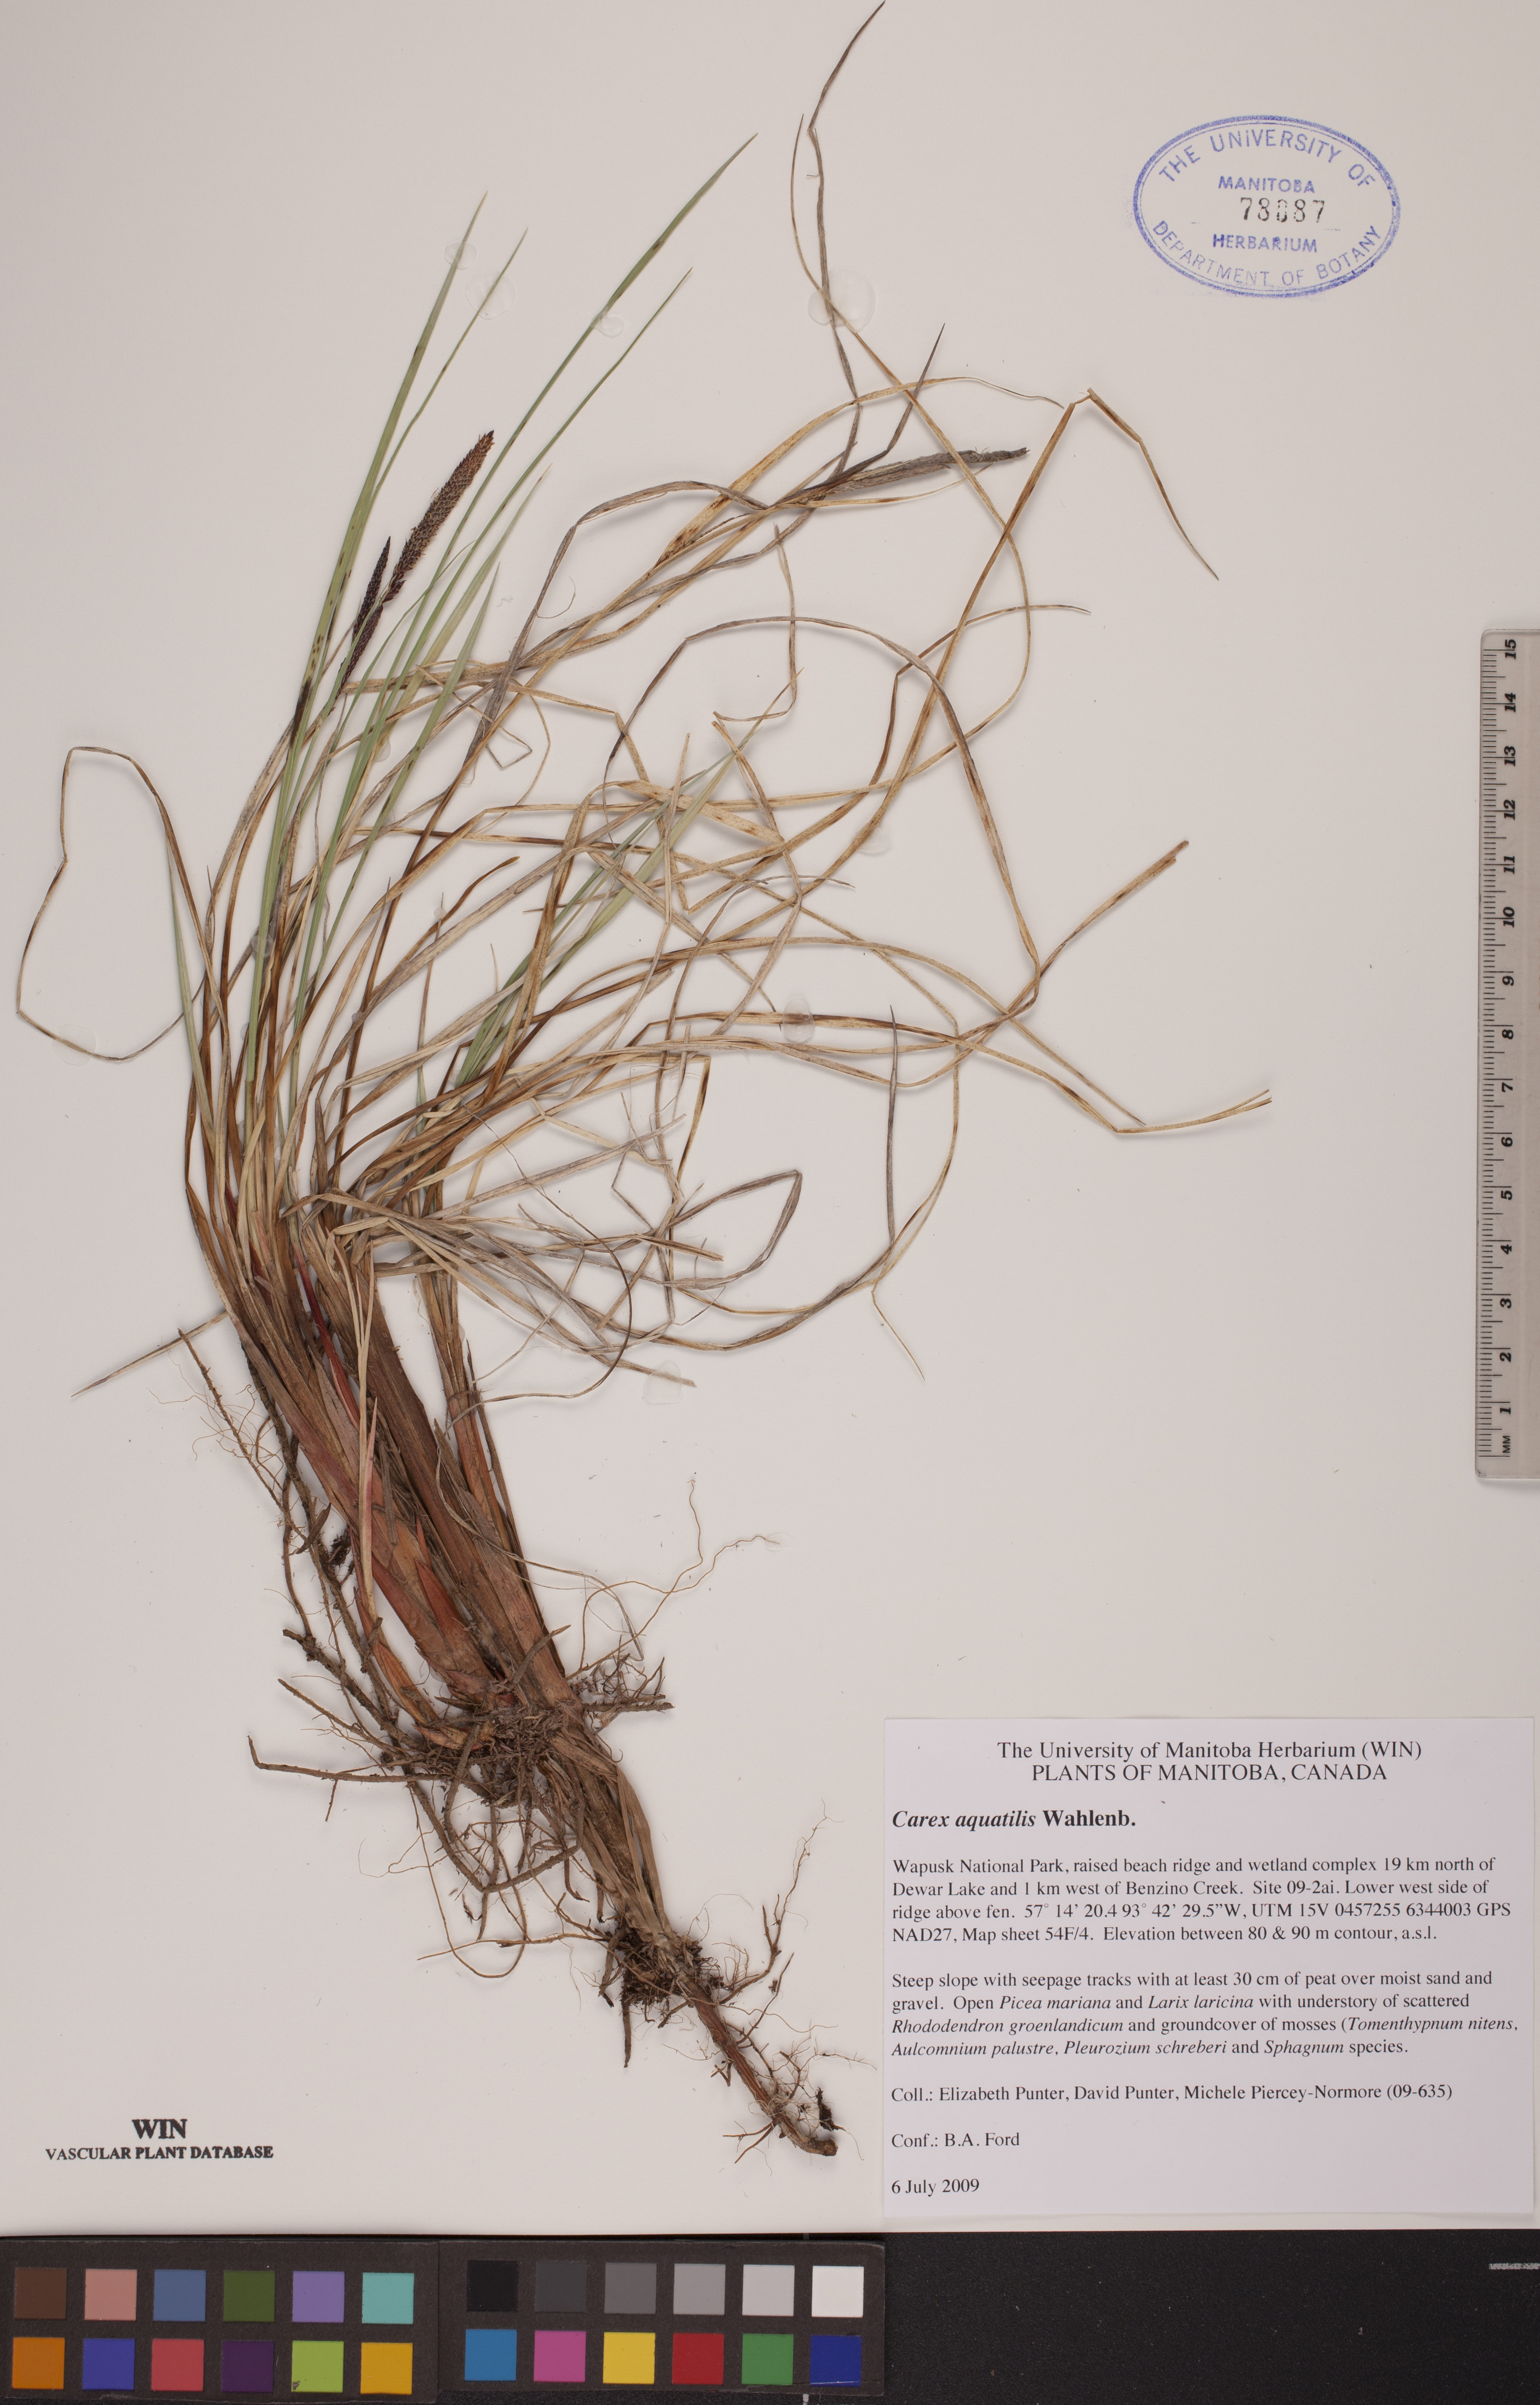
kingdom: Plantae
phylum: Tracheophyta
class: Liliopsida
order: Poales
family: Cyperaceae
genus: Carex
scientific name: Carex aquatilis
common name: Water sedge
